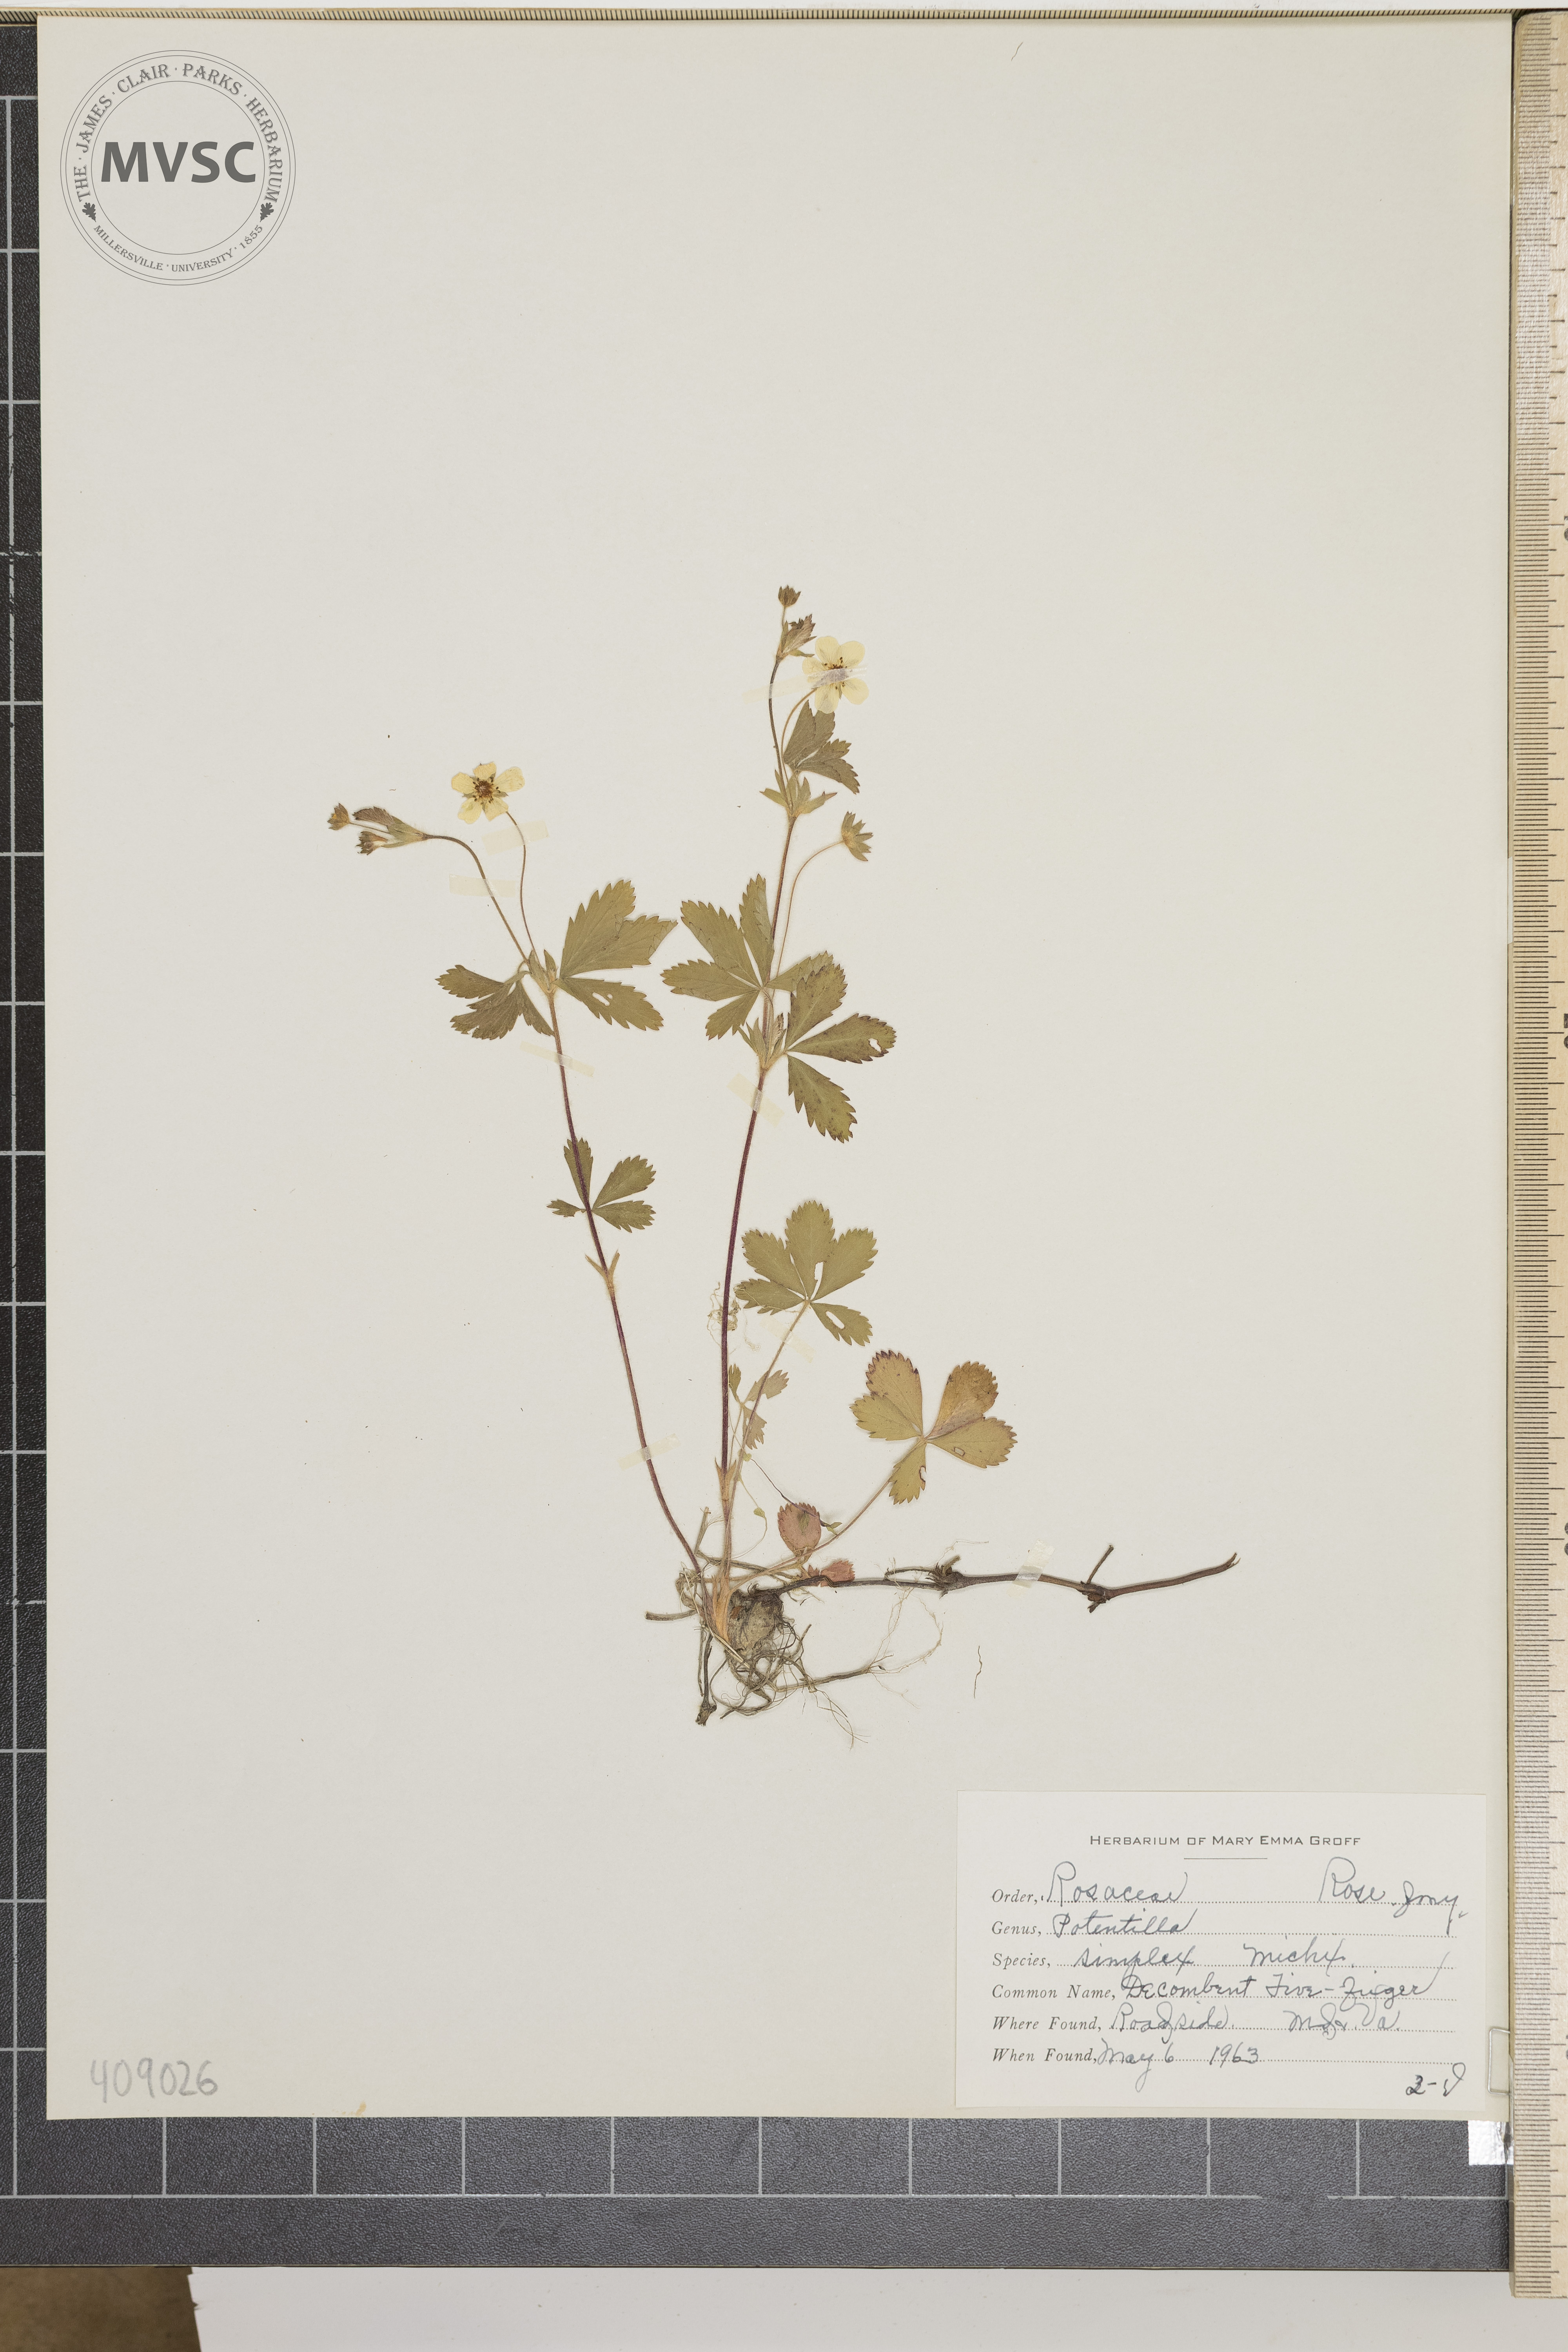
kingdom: Plantae
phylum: Tracheophyta
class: Magnoliopsida
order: Rosales
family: Rosaceae
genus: Potentilla
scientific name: Potentilla simplex
